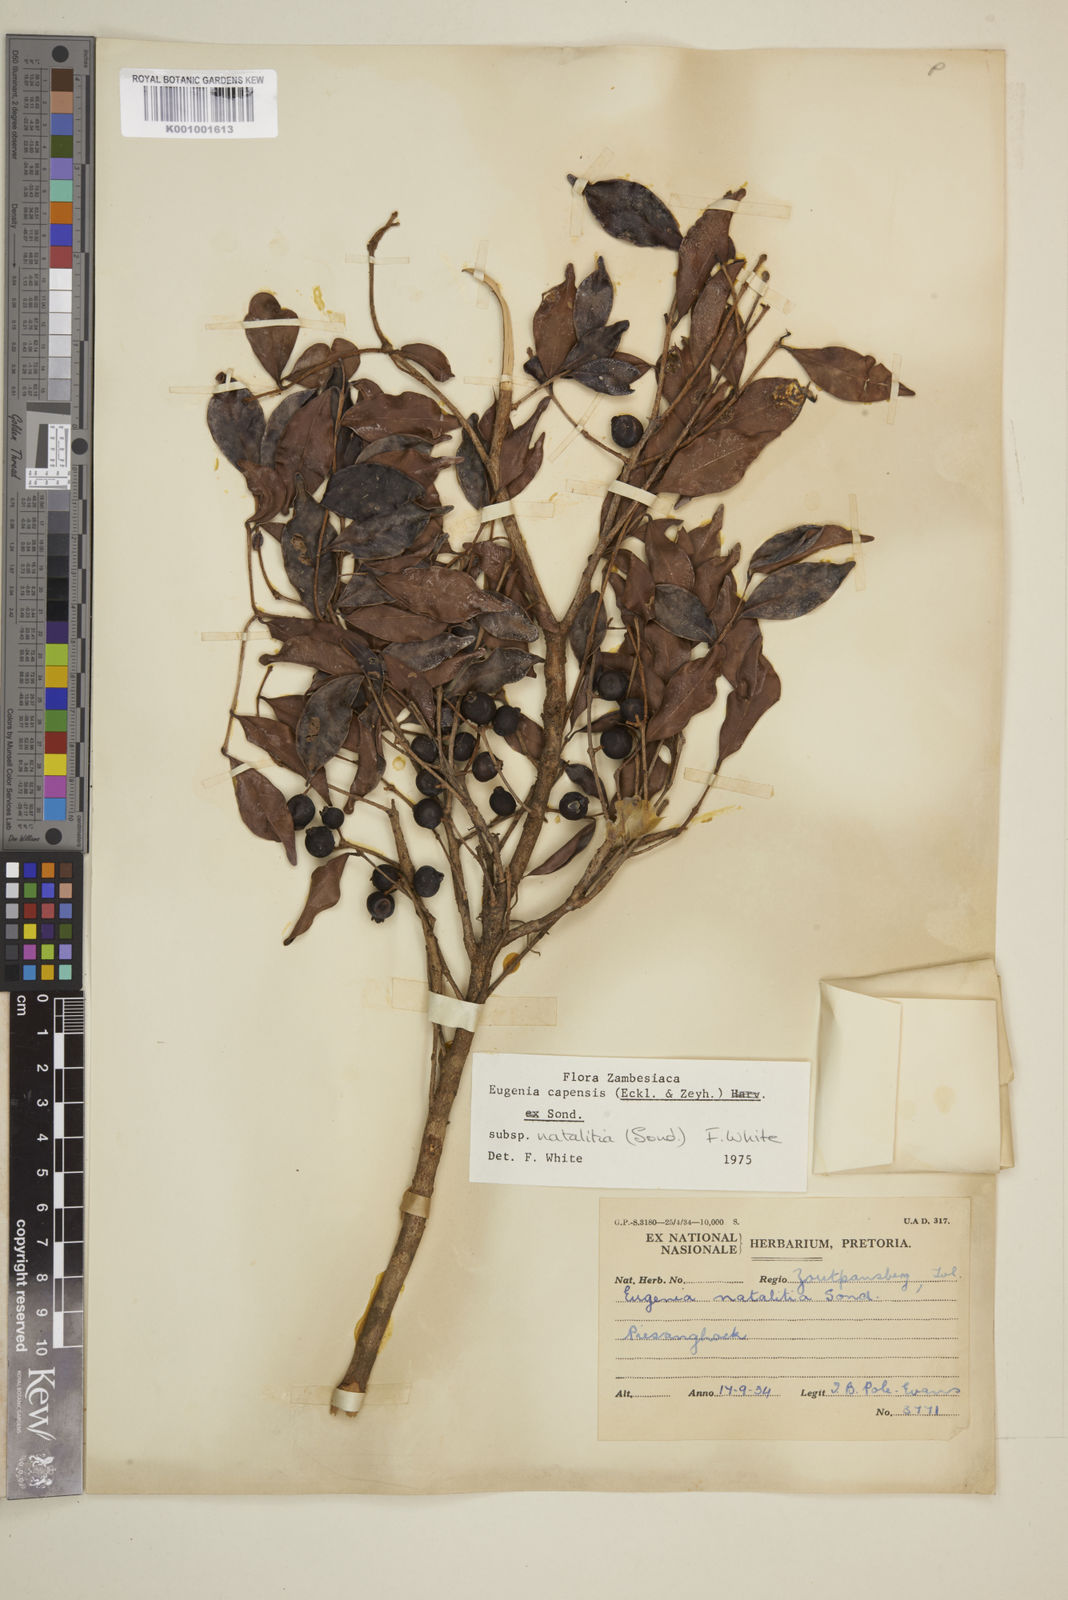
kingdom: Plantae
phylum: Tracheophyta
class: Magnoliopsida
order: Myrtales
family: Myrtaceae
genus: Eugenia
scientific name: Eugenia natalitia
